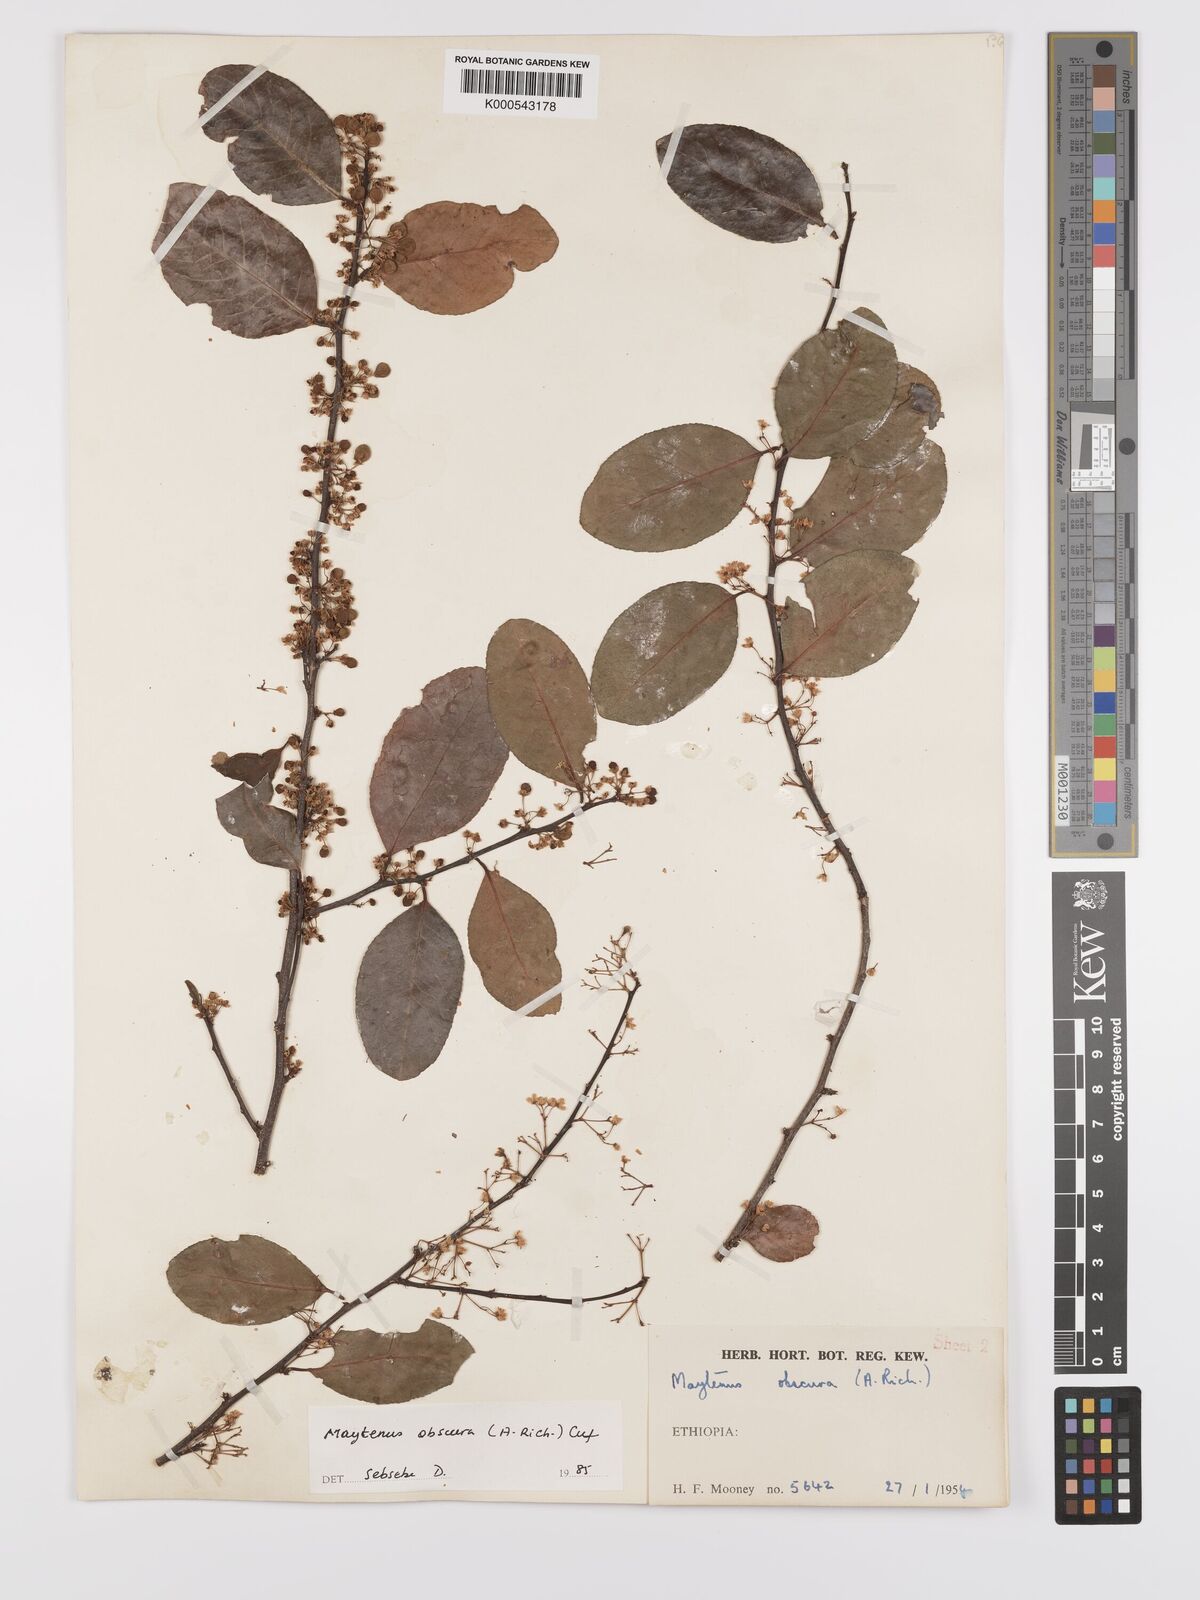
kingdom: Plantae
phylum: Tracheophyta
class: Magnoliopsida
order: Celastrales
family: Celastraceae
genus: Gymnosporia
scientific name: Gymnosporia obscura
